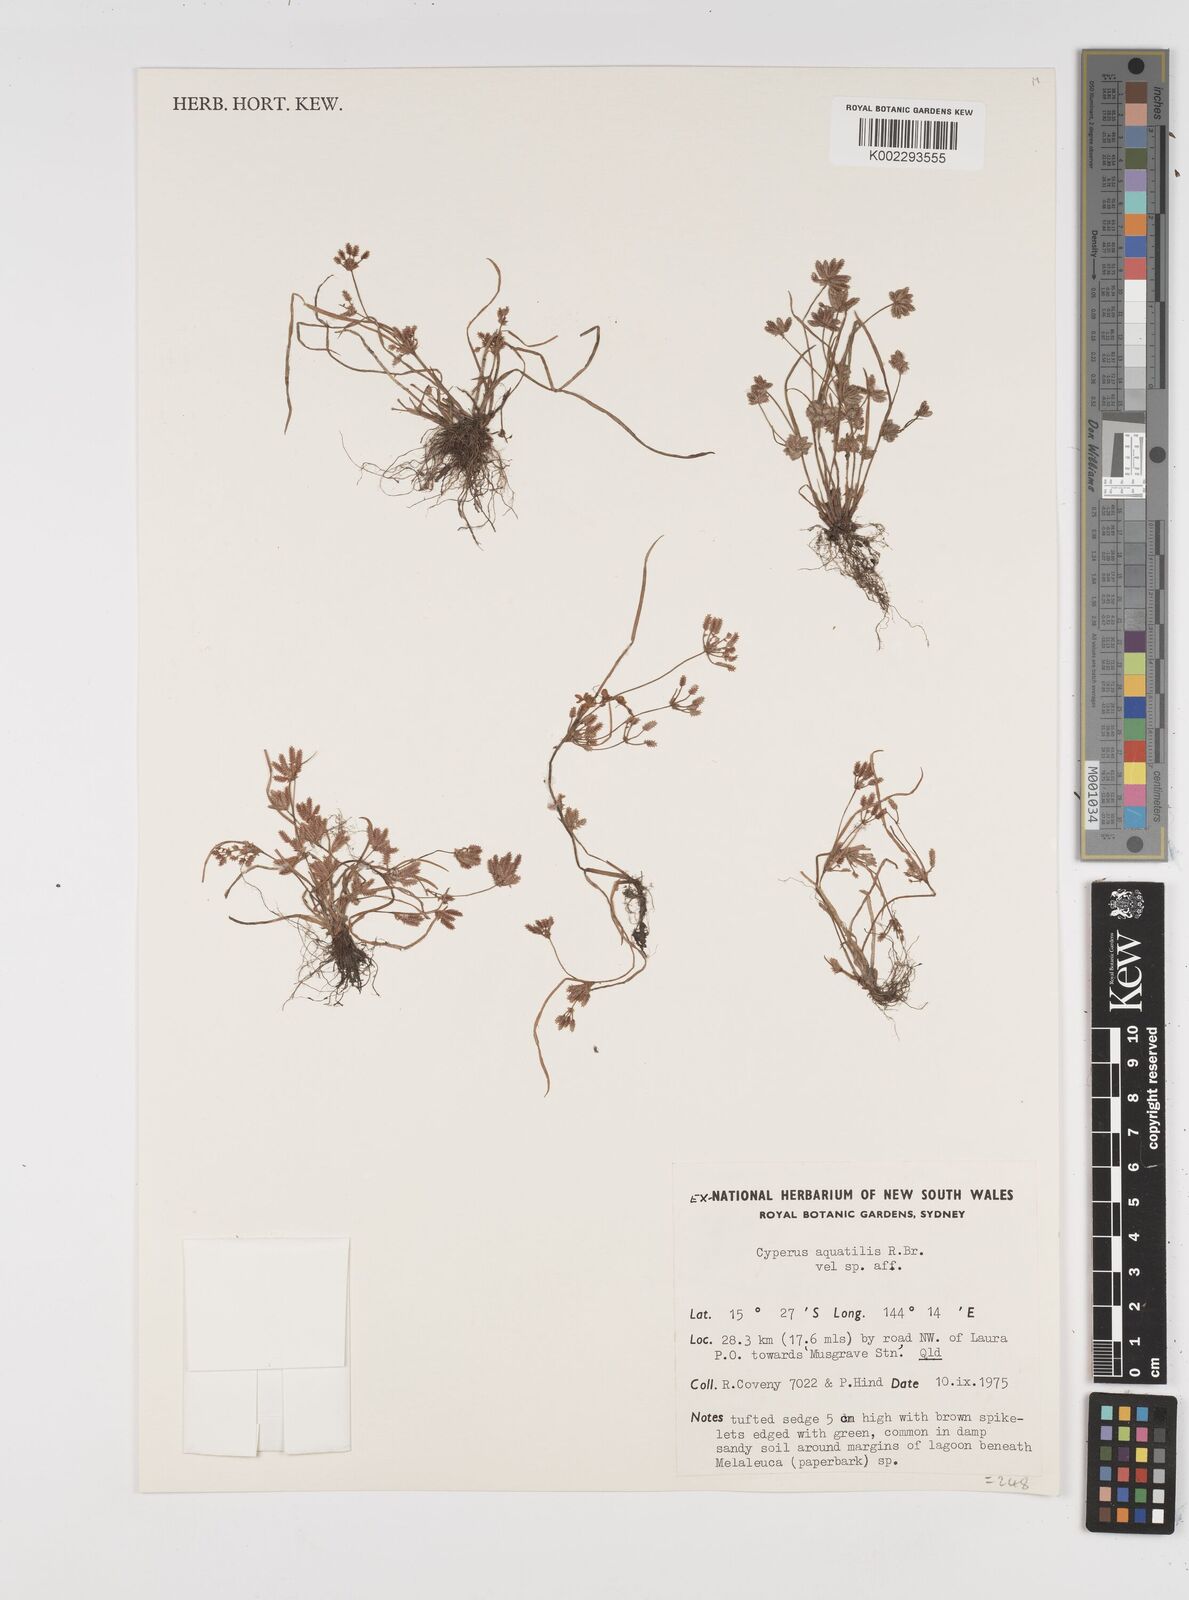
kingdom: Plantae
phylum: Tracheophyta
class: Liliopsida
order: Poales
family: Cyperaceae
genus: Cyperus
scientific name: Cyperus aquatilis
